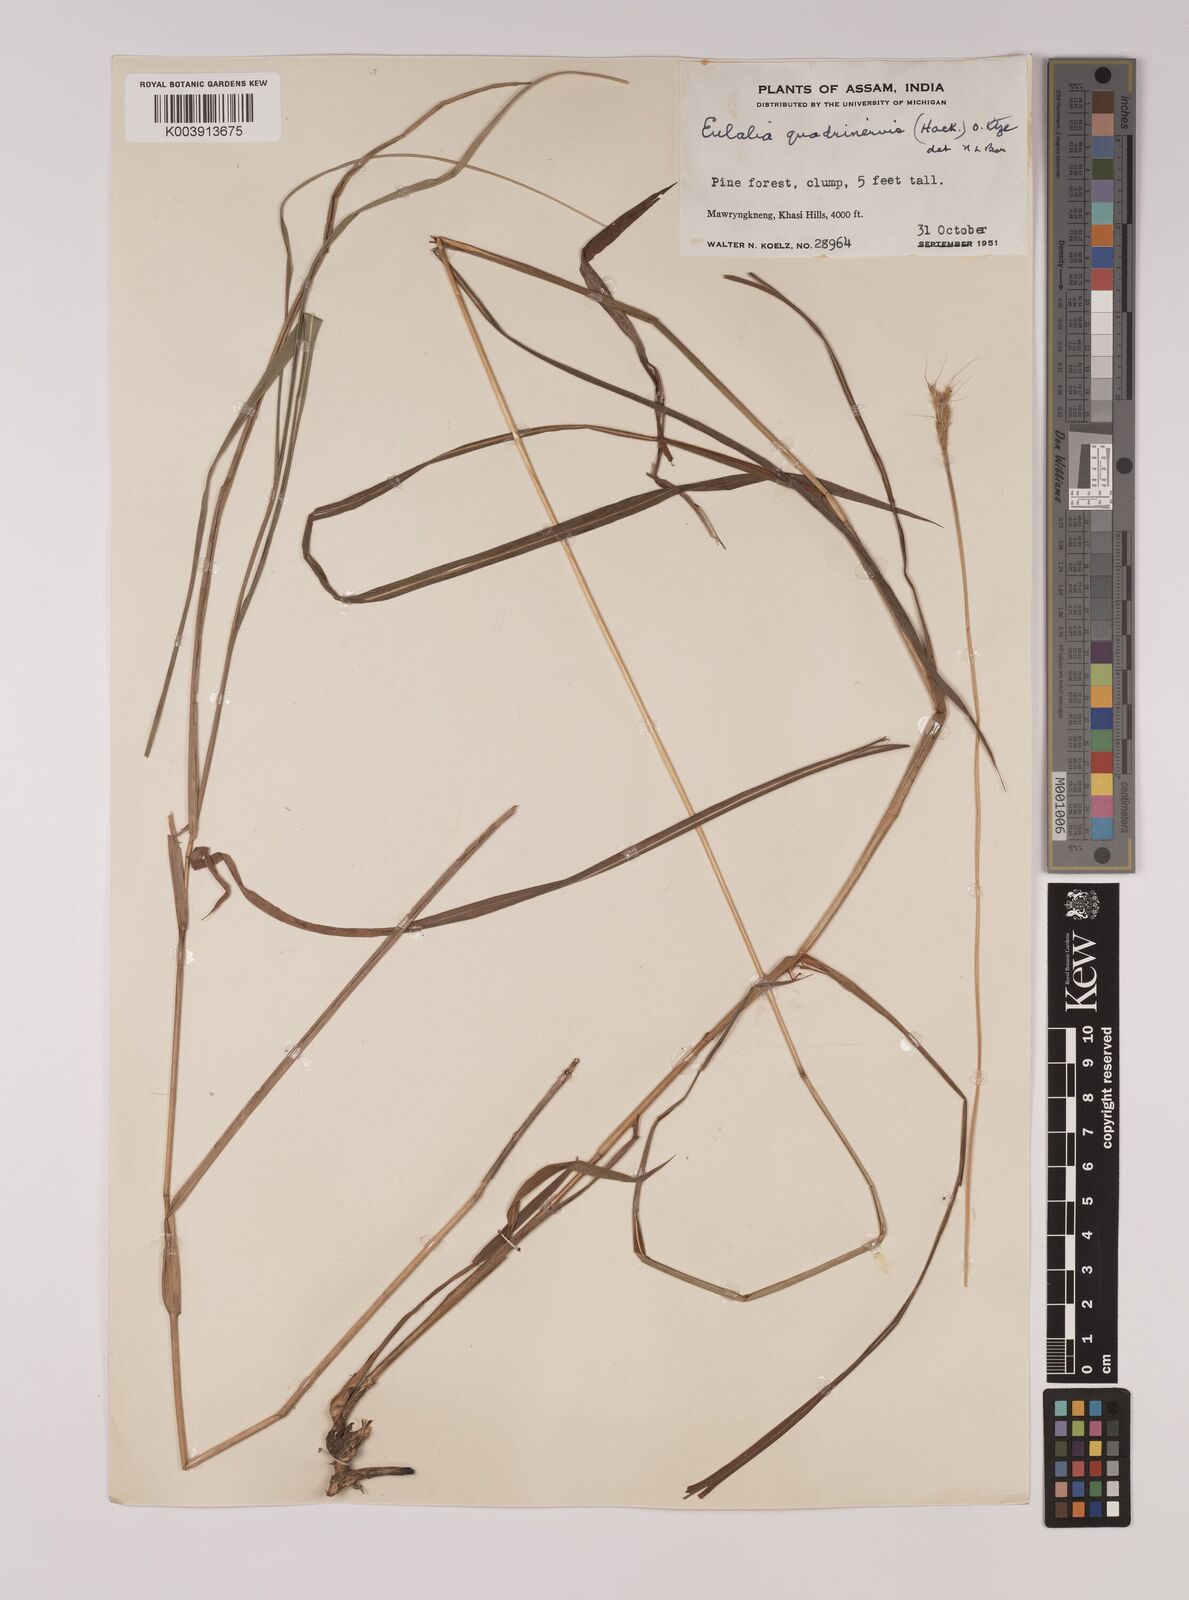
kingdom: Plantae
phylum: Tracheophyta
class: Liliopsida
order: Poales
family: Poaceae
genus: Pseudopogonatherum
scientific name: Pseudopogonatherum quadrinerve
